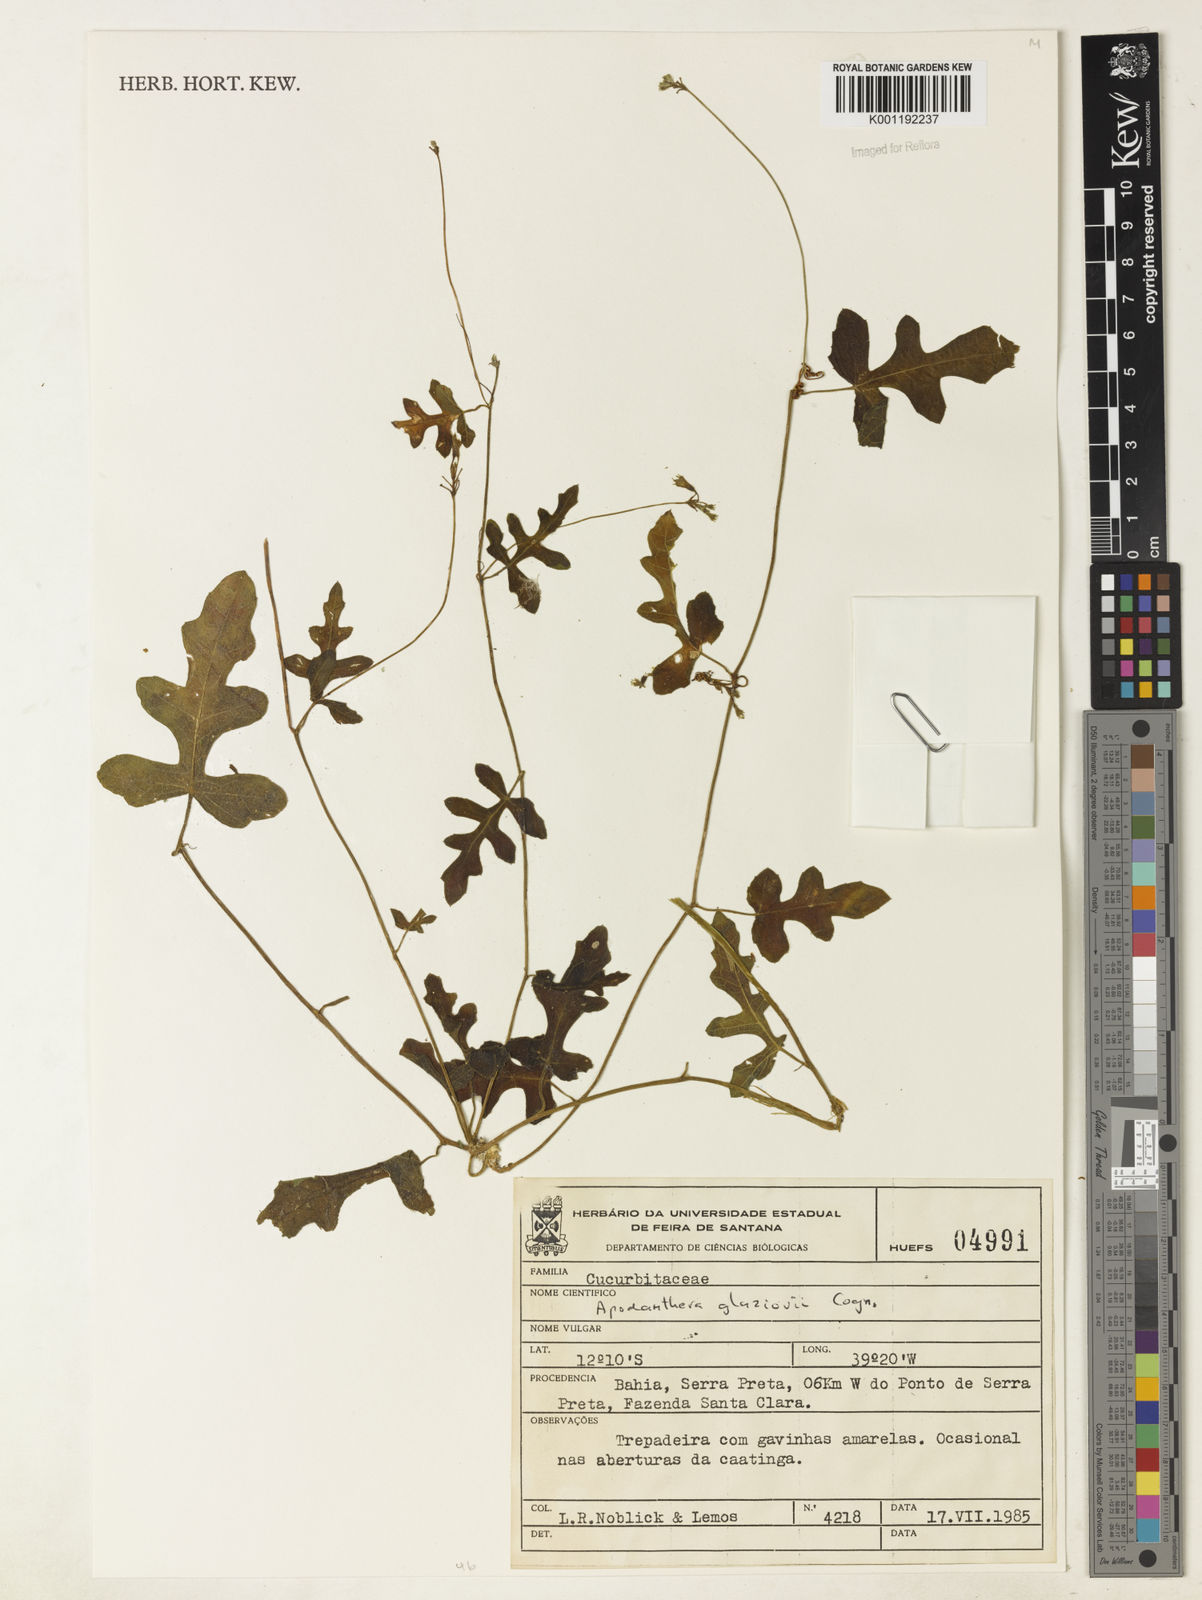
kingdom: Plantae
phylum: Tracheophyta
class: Magnoliopsida
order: Cucurbitales
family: Cucurbitaceae
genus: Apodanthera
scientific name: Apodanthera glaziovii
